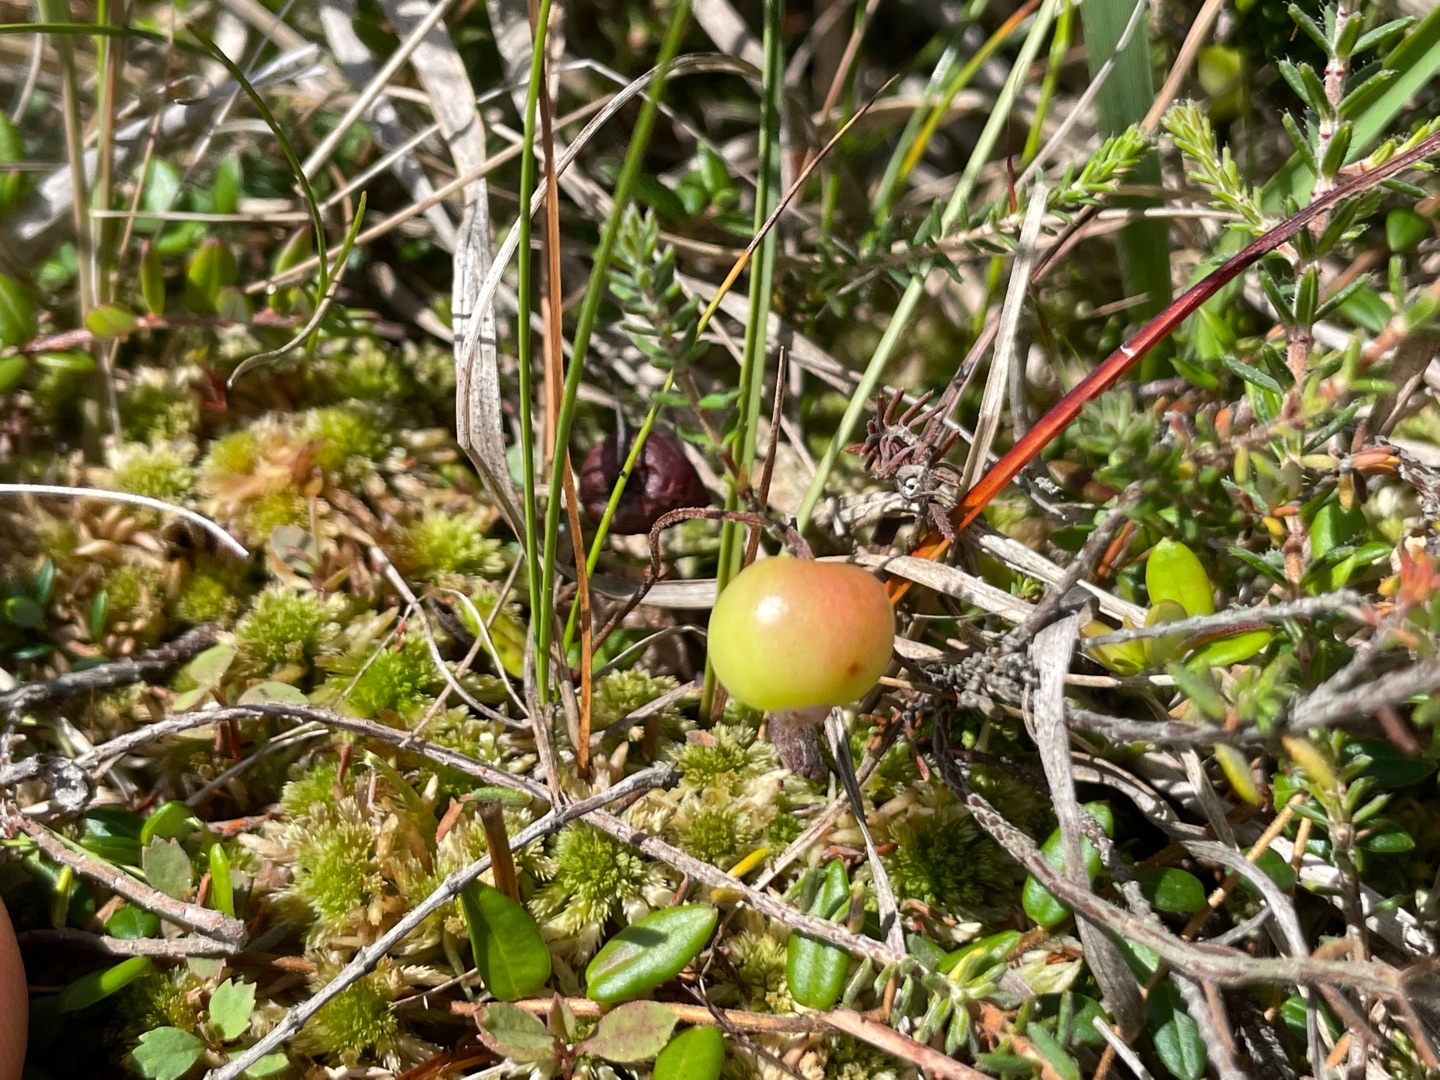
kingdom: Plantae
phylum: Tracheophyta
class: Magnoliopsida
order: Ericales
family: Ericaceae
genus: Vaccinium
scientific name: Vaccinium oxycoccos
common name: Tranebær
